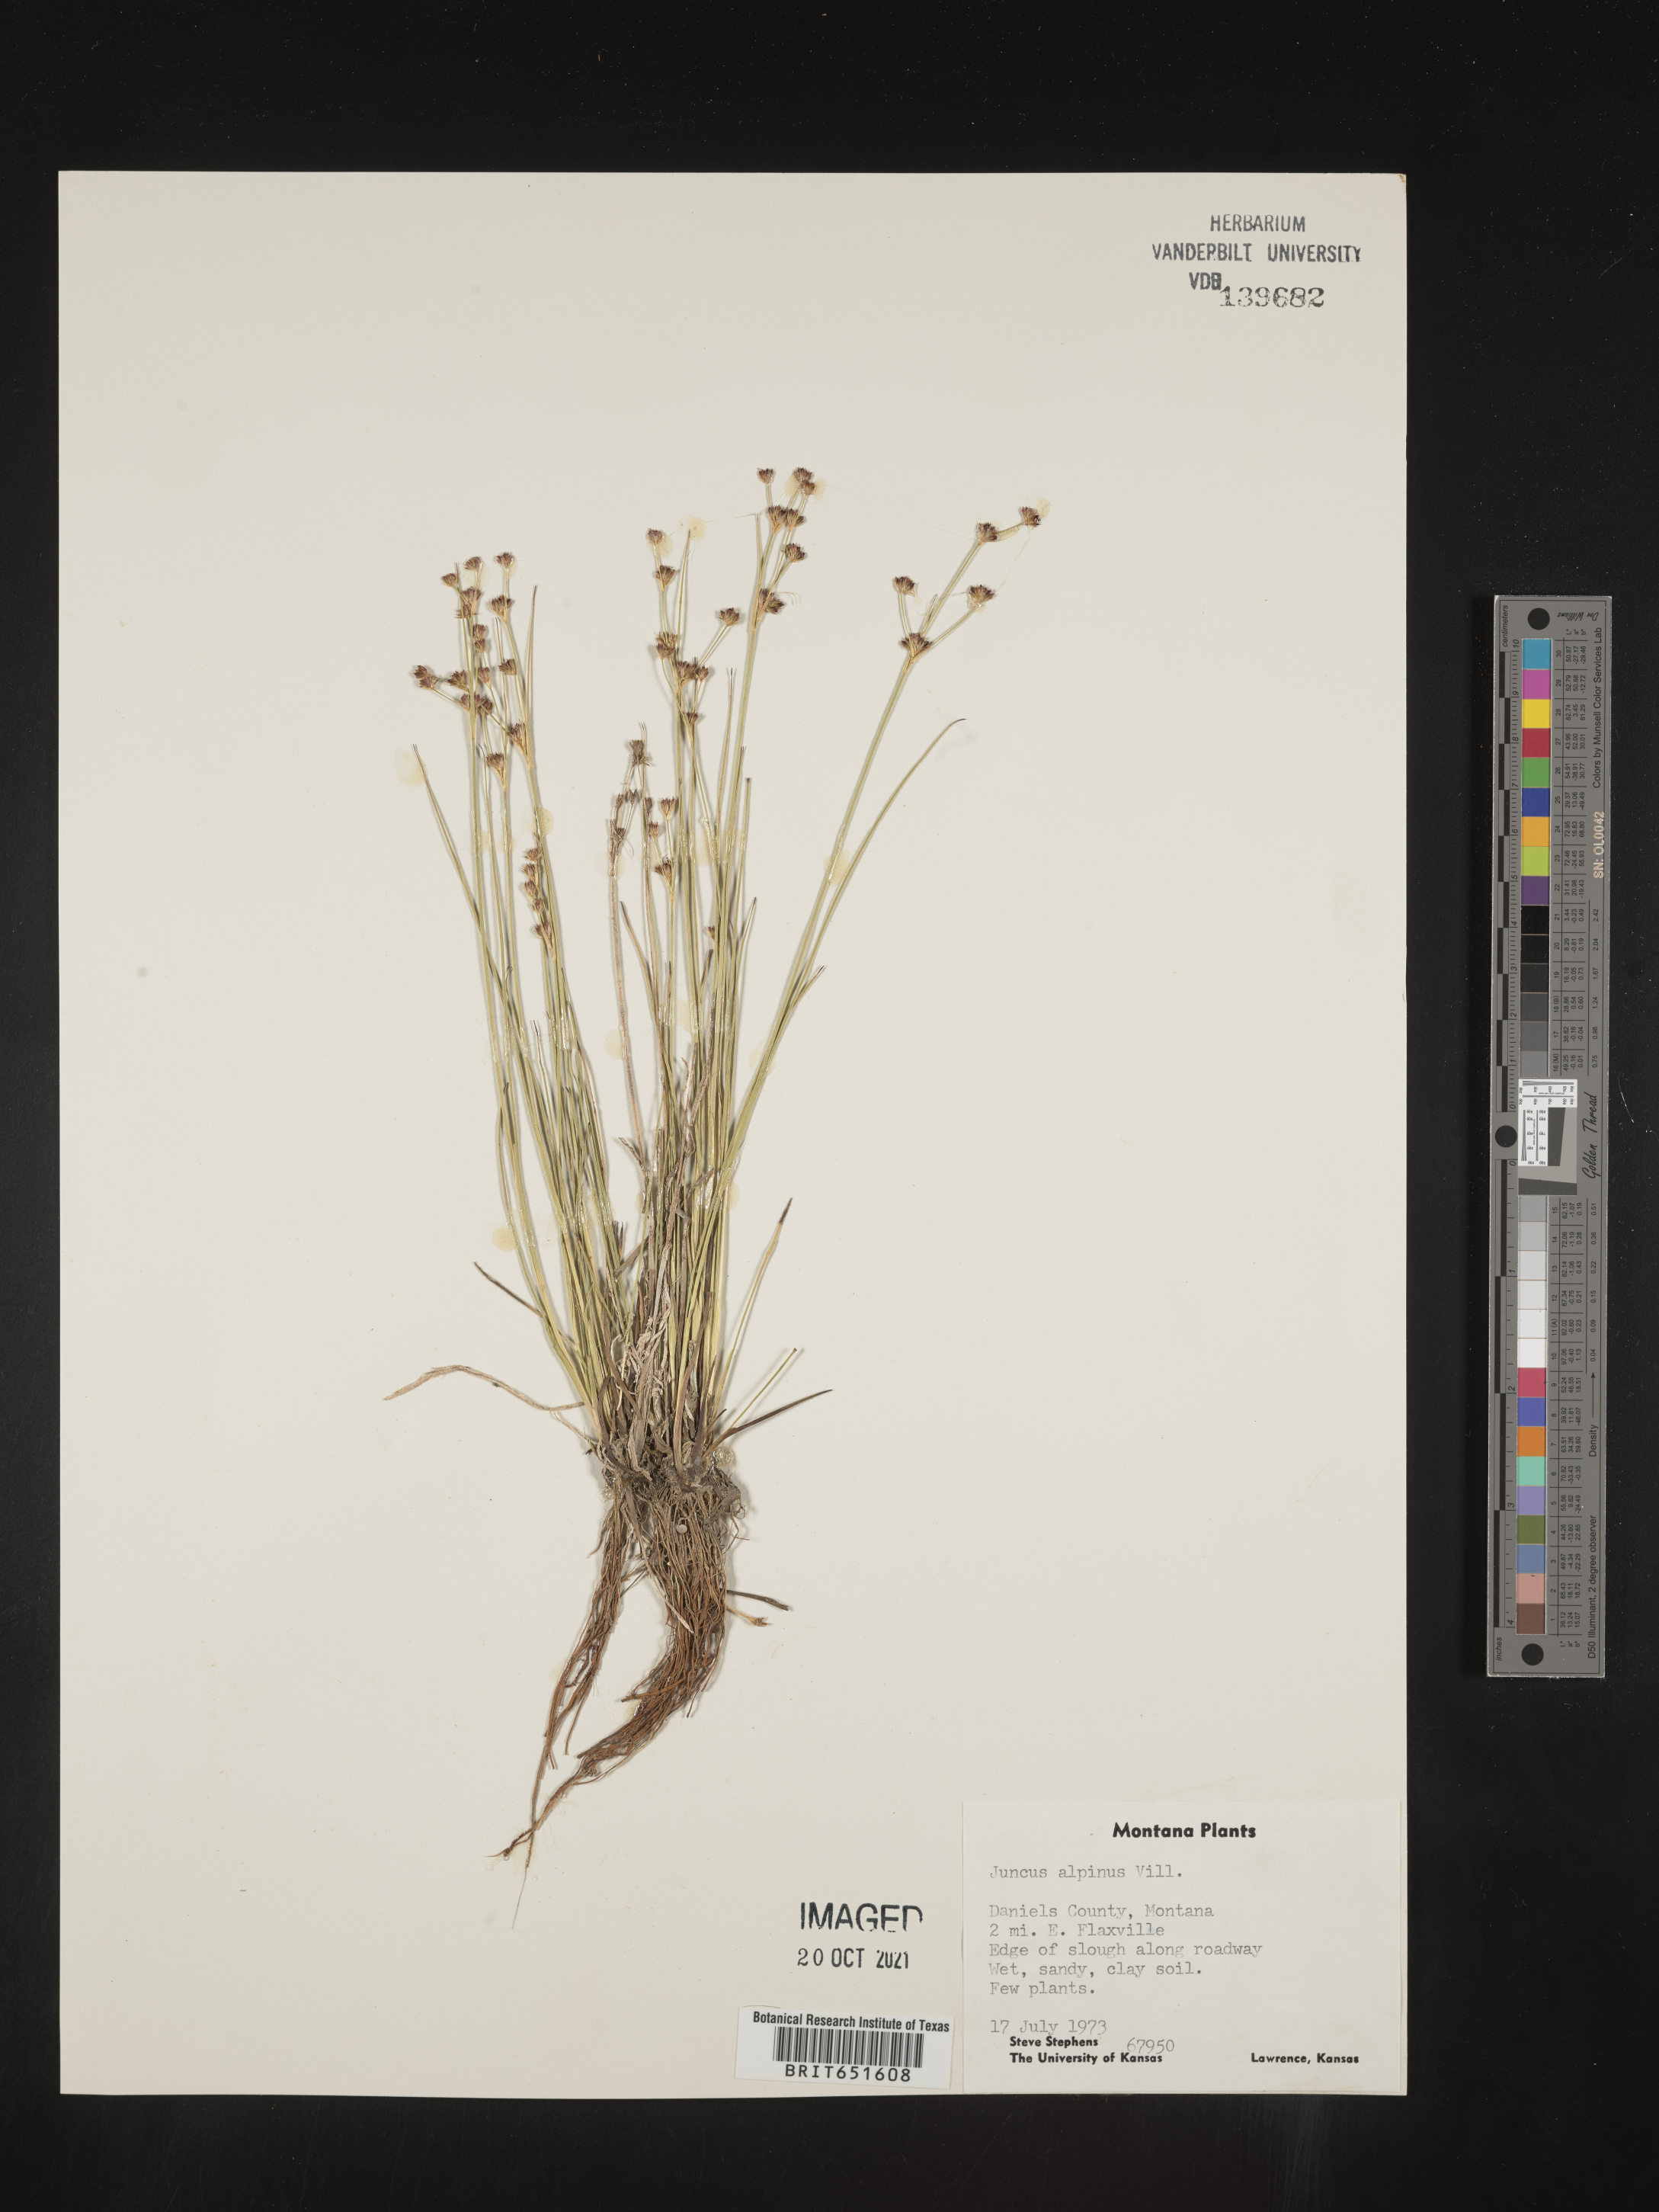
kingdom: Plantae
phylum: Tracheophyta
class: Liliopsida
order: Poales
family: Juncaceae
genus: Juncus
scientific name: Juncus alpinoarticulatus
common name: Alpine rush
